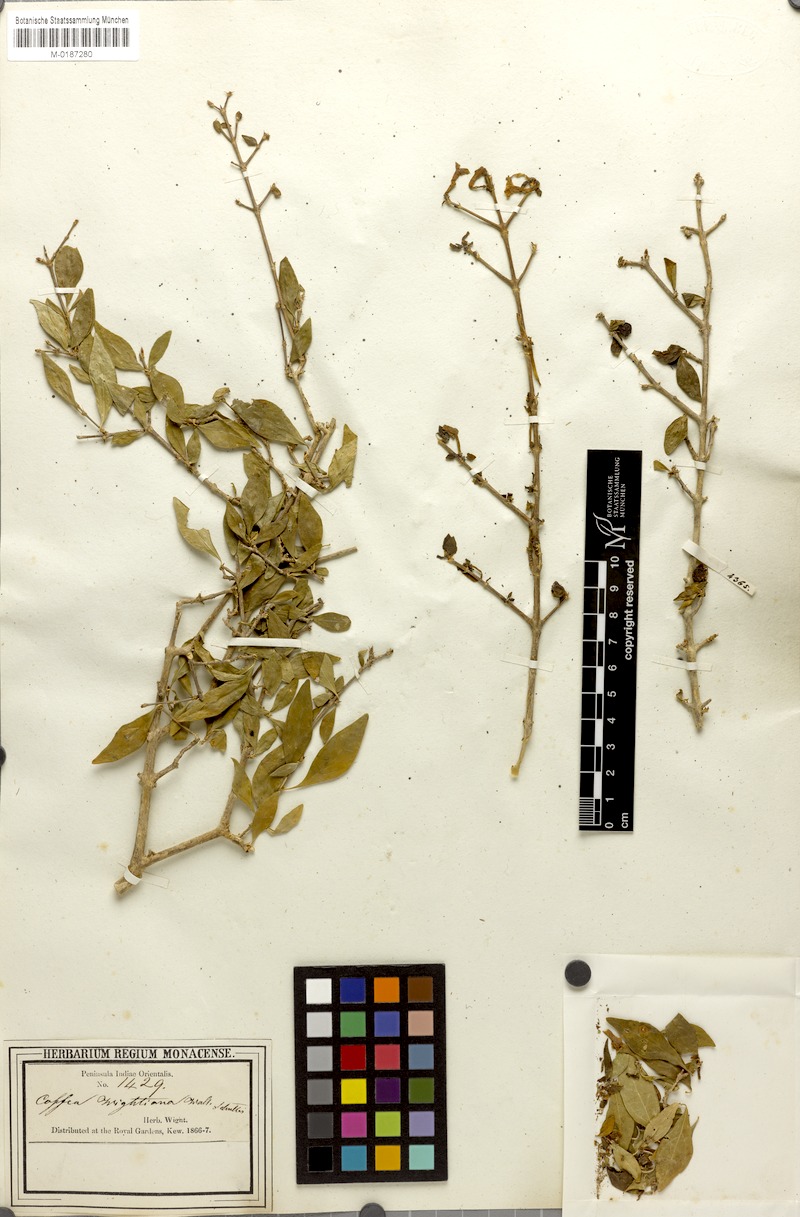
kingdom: Plantae
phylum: Tracheophyta
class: Magnoliopsida
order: Gentianales
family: Rubiaceae
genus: Coffea
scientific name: Coffea wightiana
